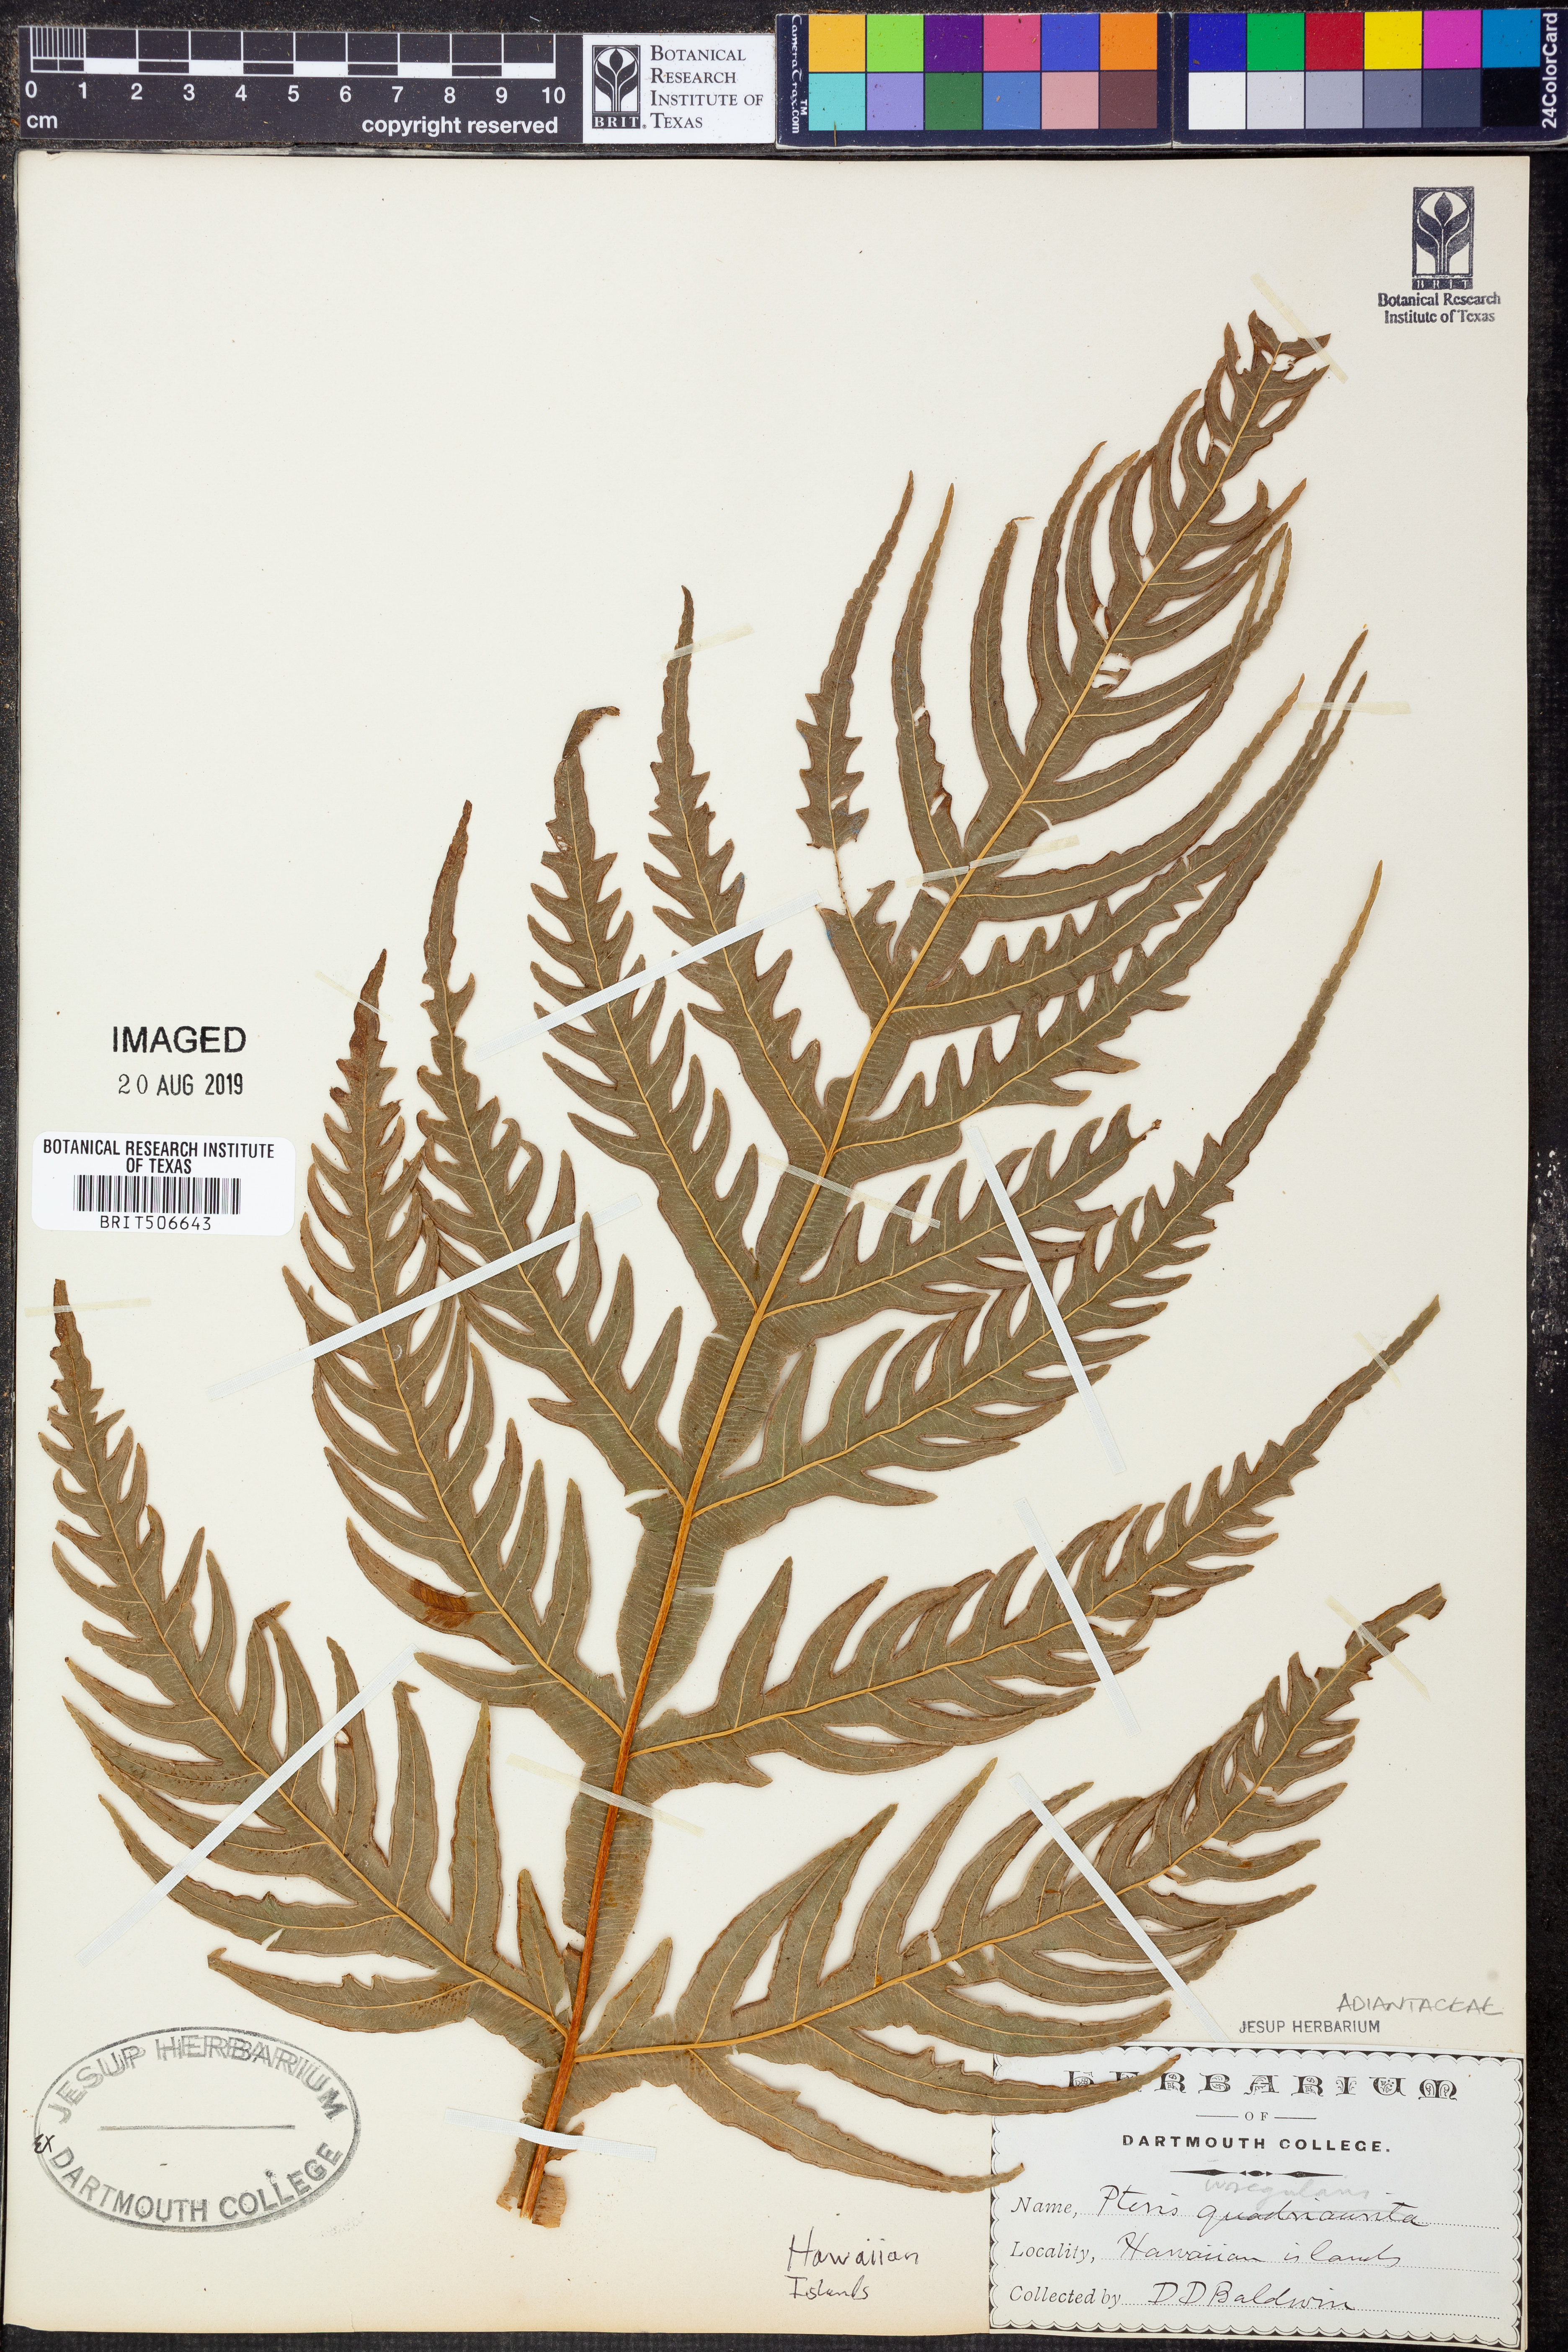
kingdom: Plantae
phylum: Tracheophyta
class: Polypodiopsida
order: Polypodiales
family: Pteridaceae
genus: Pteris
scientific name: Pteris irregularis
